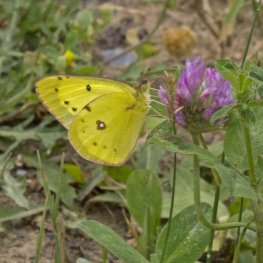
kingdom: Animalia
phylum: Arthropoda
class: Insecta
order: Lepidoptera
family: Pieridae
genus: Colias
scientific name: Colias philodice
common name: Clouded Sulphur
